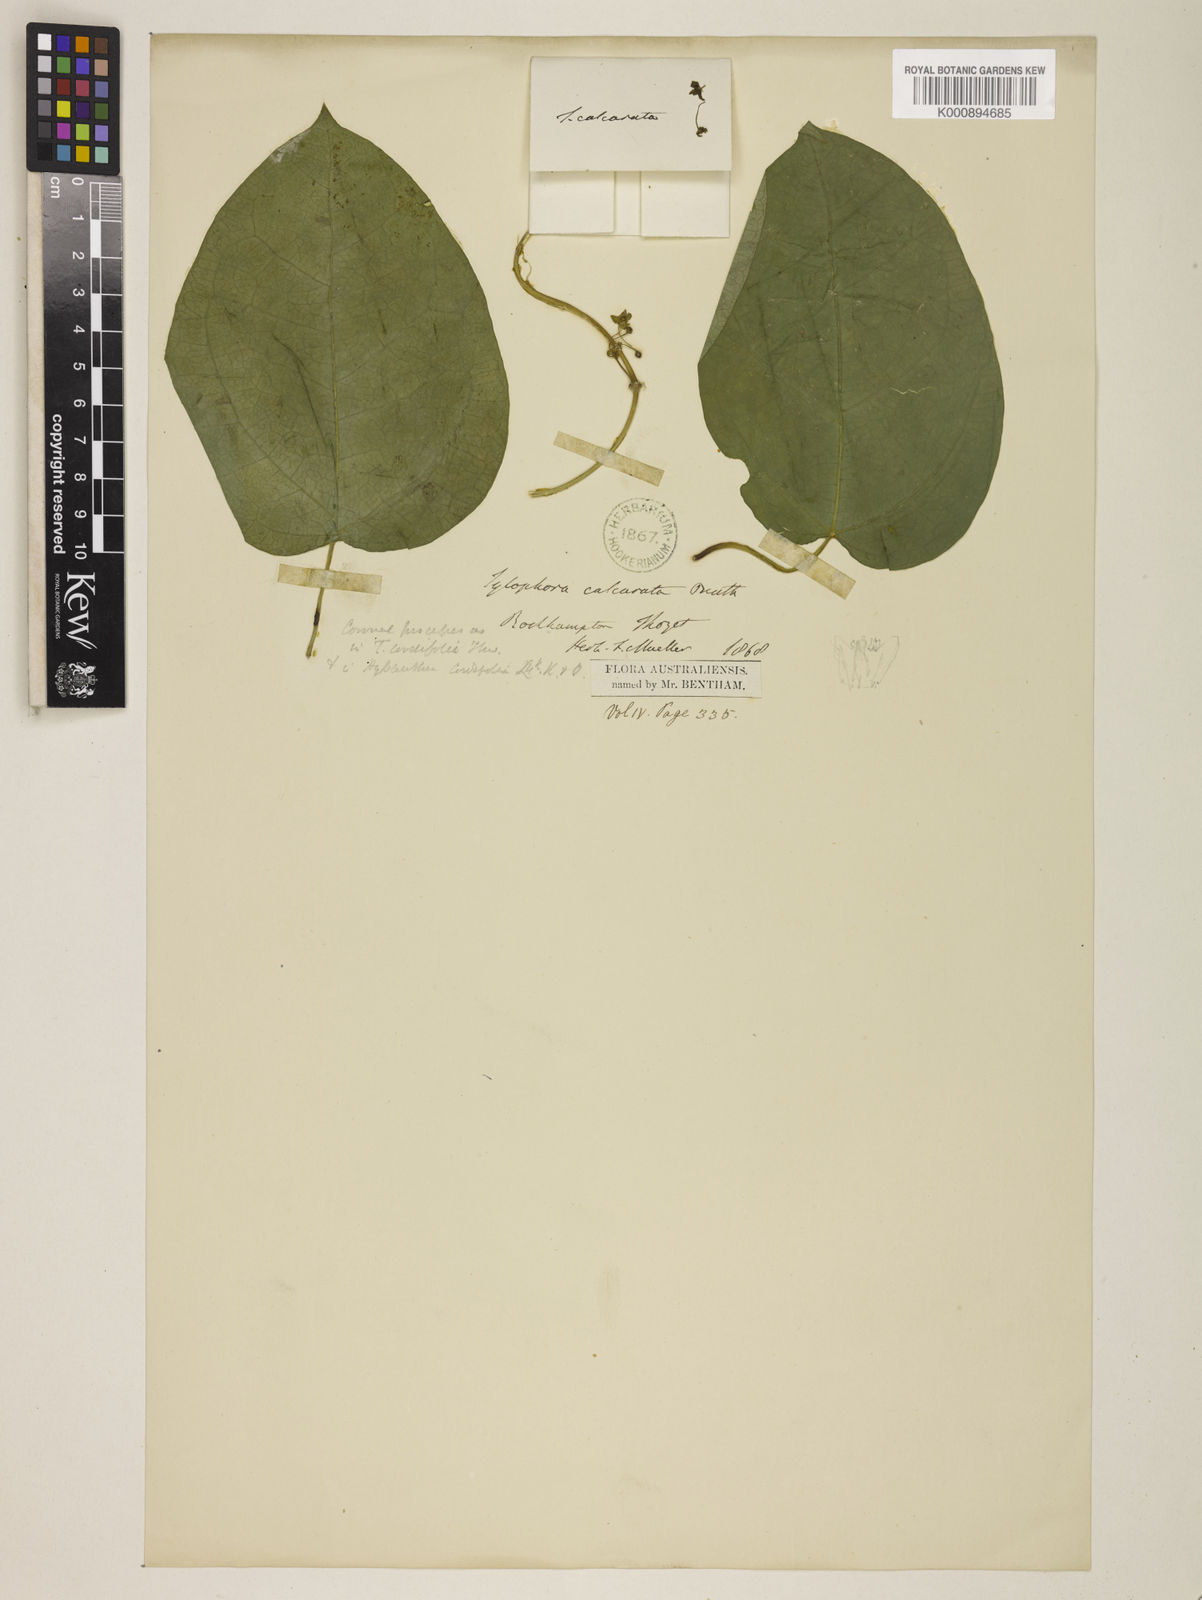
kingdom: Plantae
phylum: Tracheophyta
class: Magnoliopsida
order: Gentianales
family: Apocynaceae
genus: Heterostemma
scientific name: Heterostemma acuminatum
